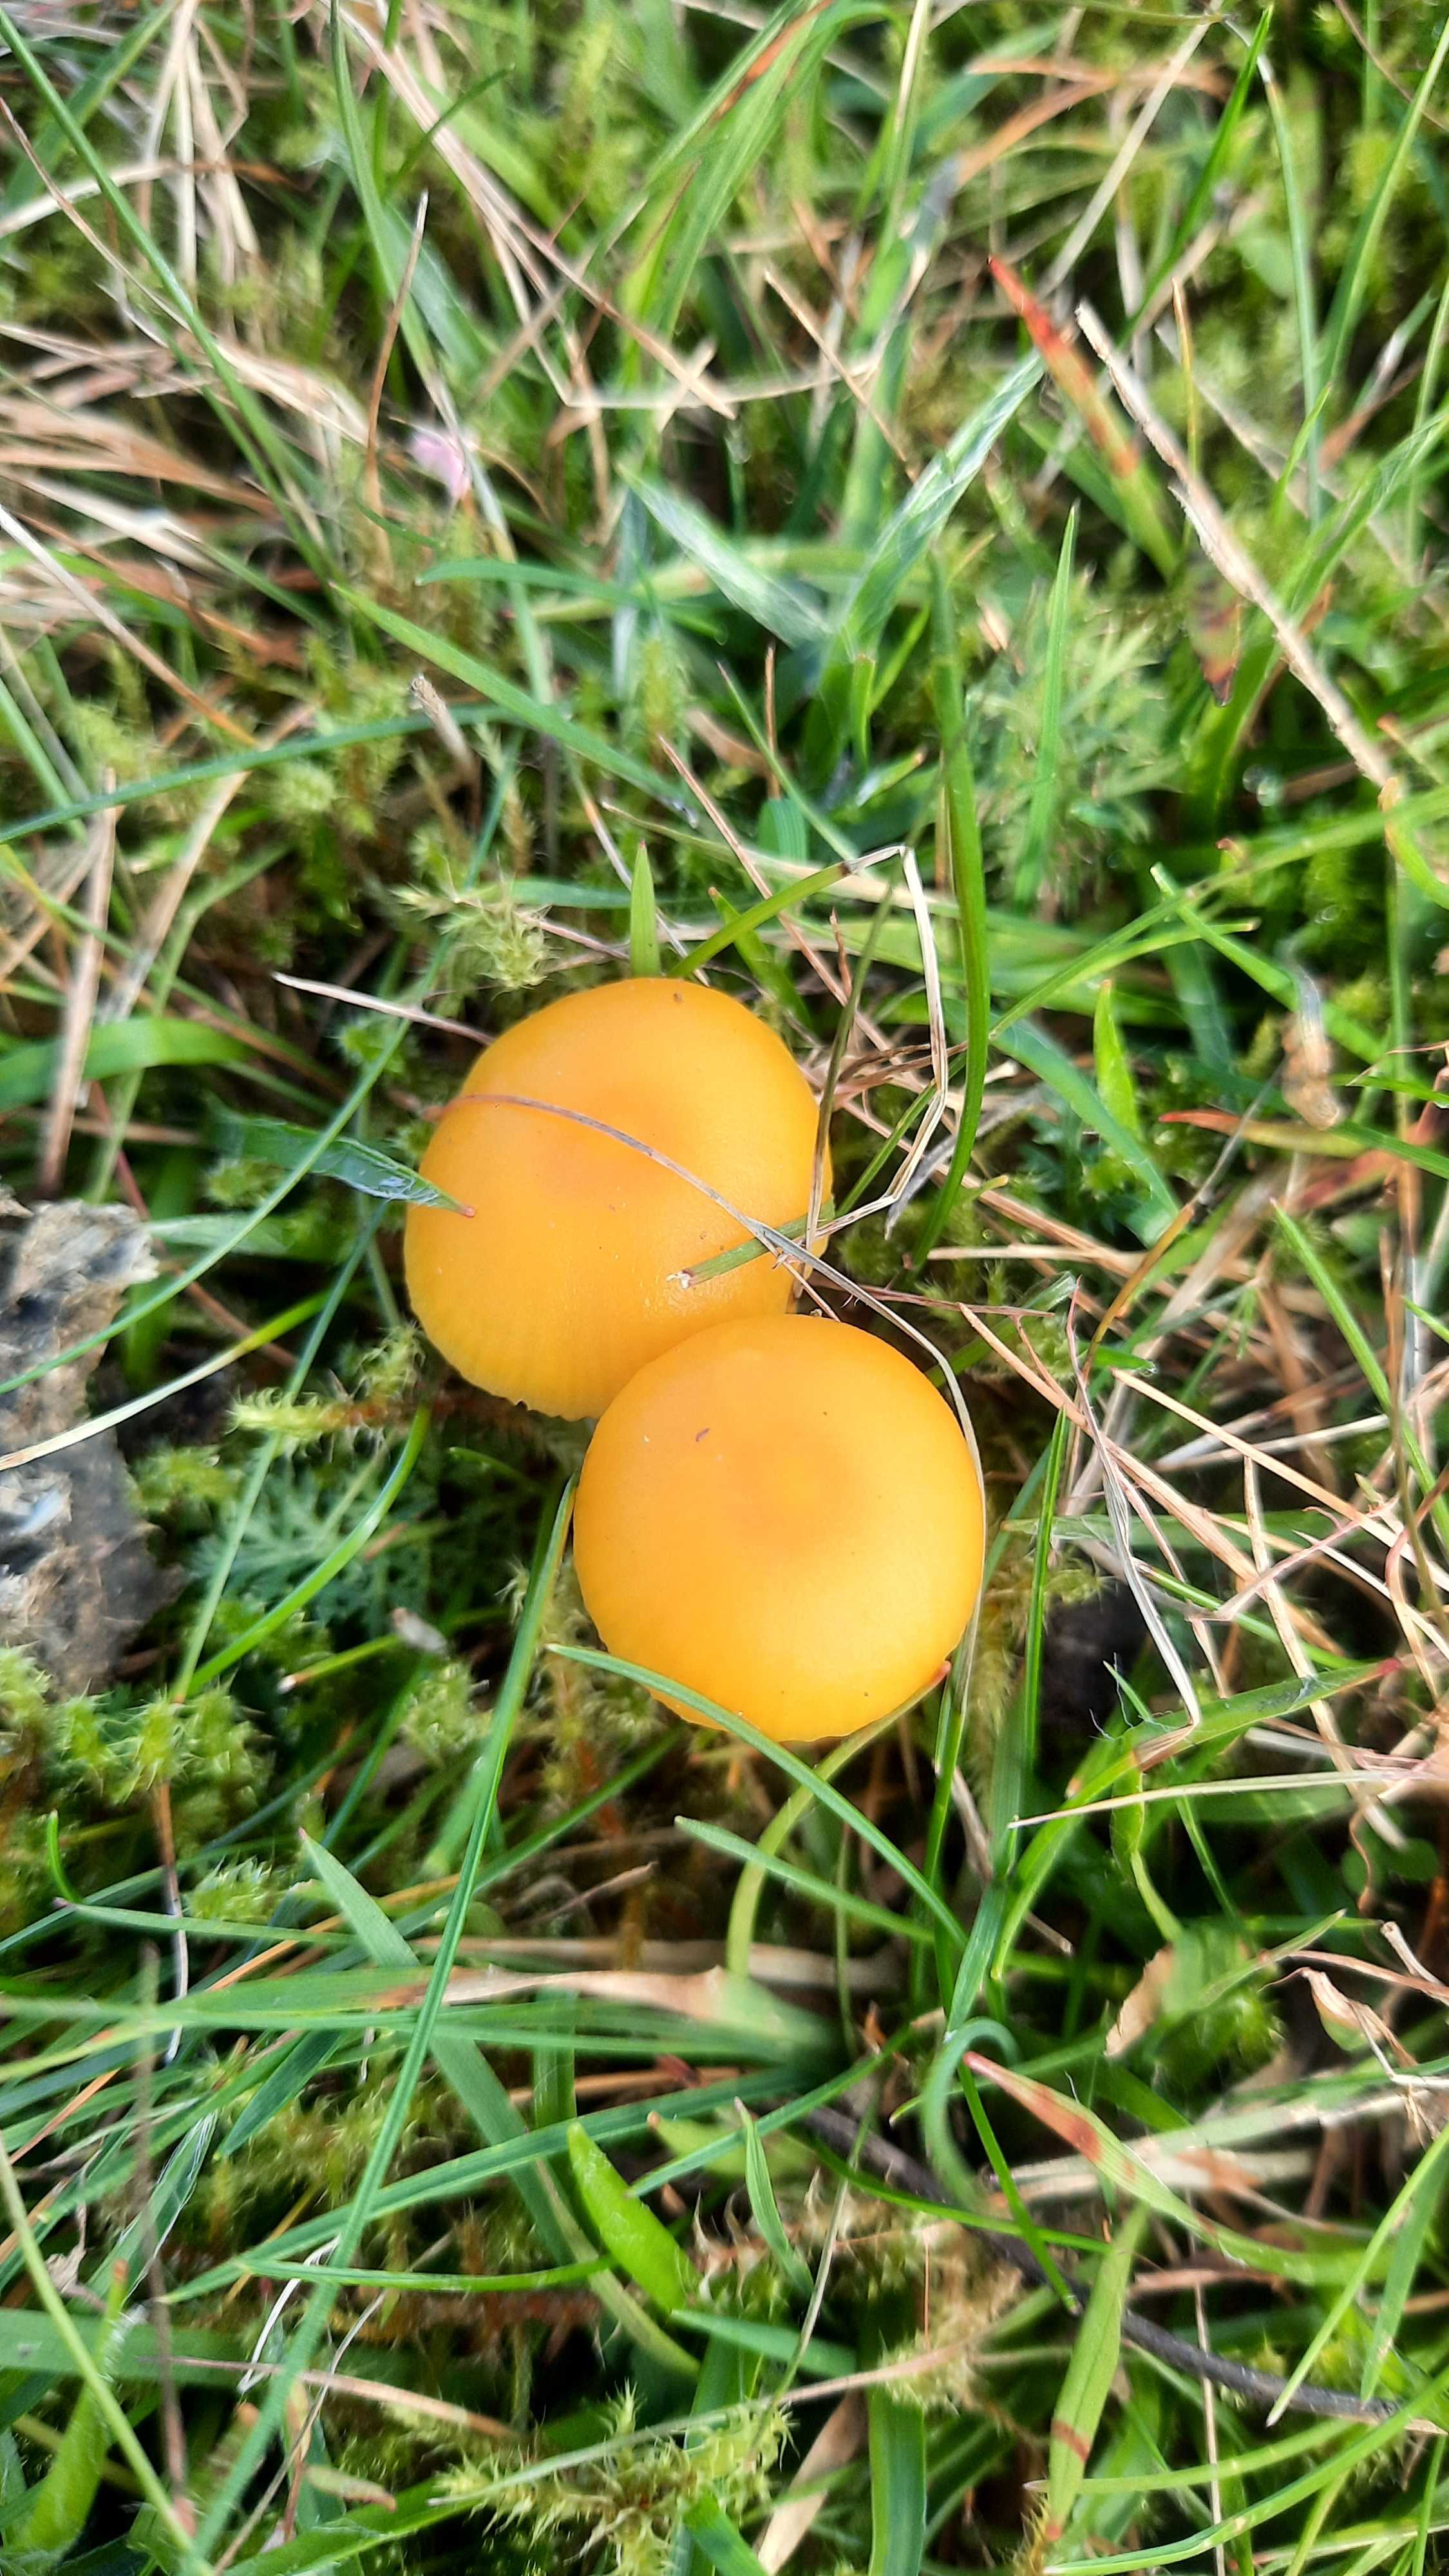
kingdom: Fungi
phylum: Basidiomycota
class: Agaricomycetes
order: Agaricales
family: Hygrophoraceae
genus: Hygrocybe
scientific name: Hygrocybe ceracea
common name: voksgul vokshat
